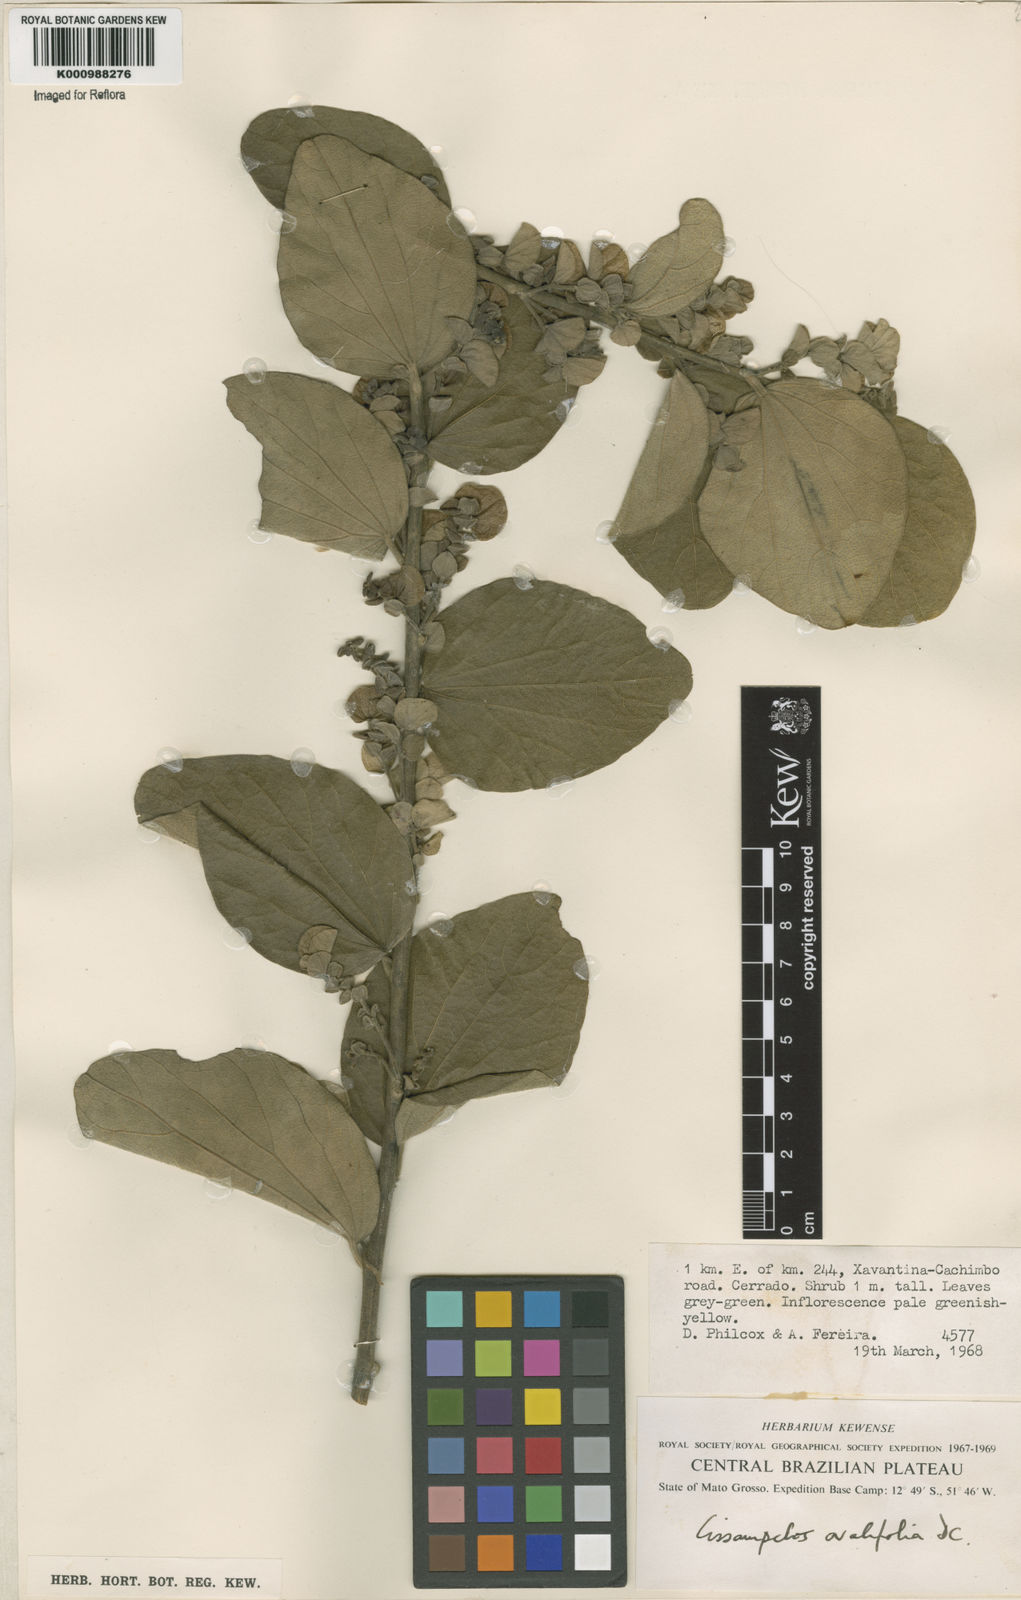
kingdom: Plantae
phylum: Tracheophyta
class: Magnoliopsida
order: Ranunculales
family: Menispermaceae
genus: Cissampelos
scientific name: Cissampelos ovalifolia
